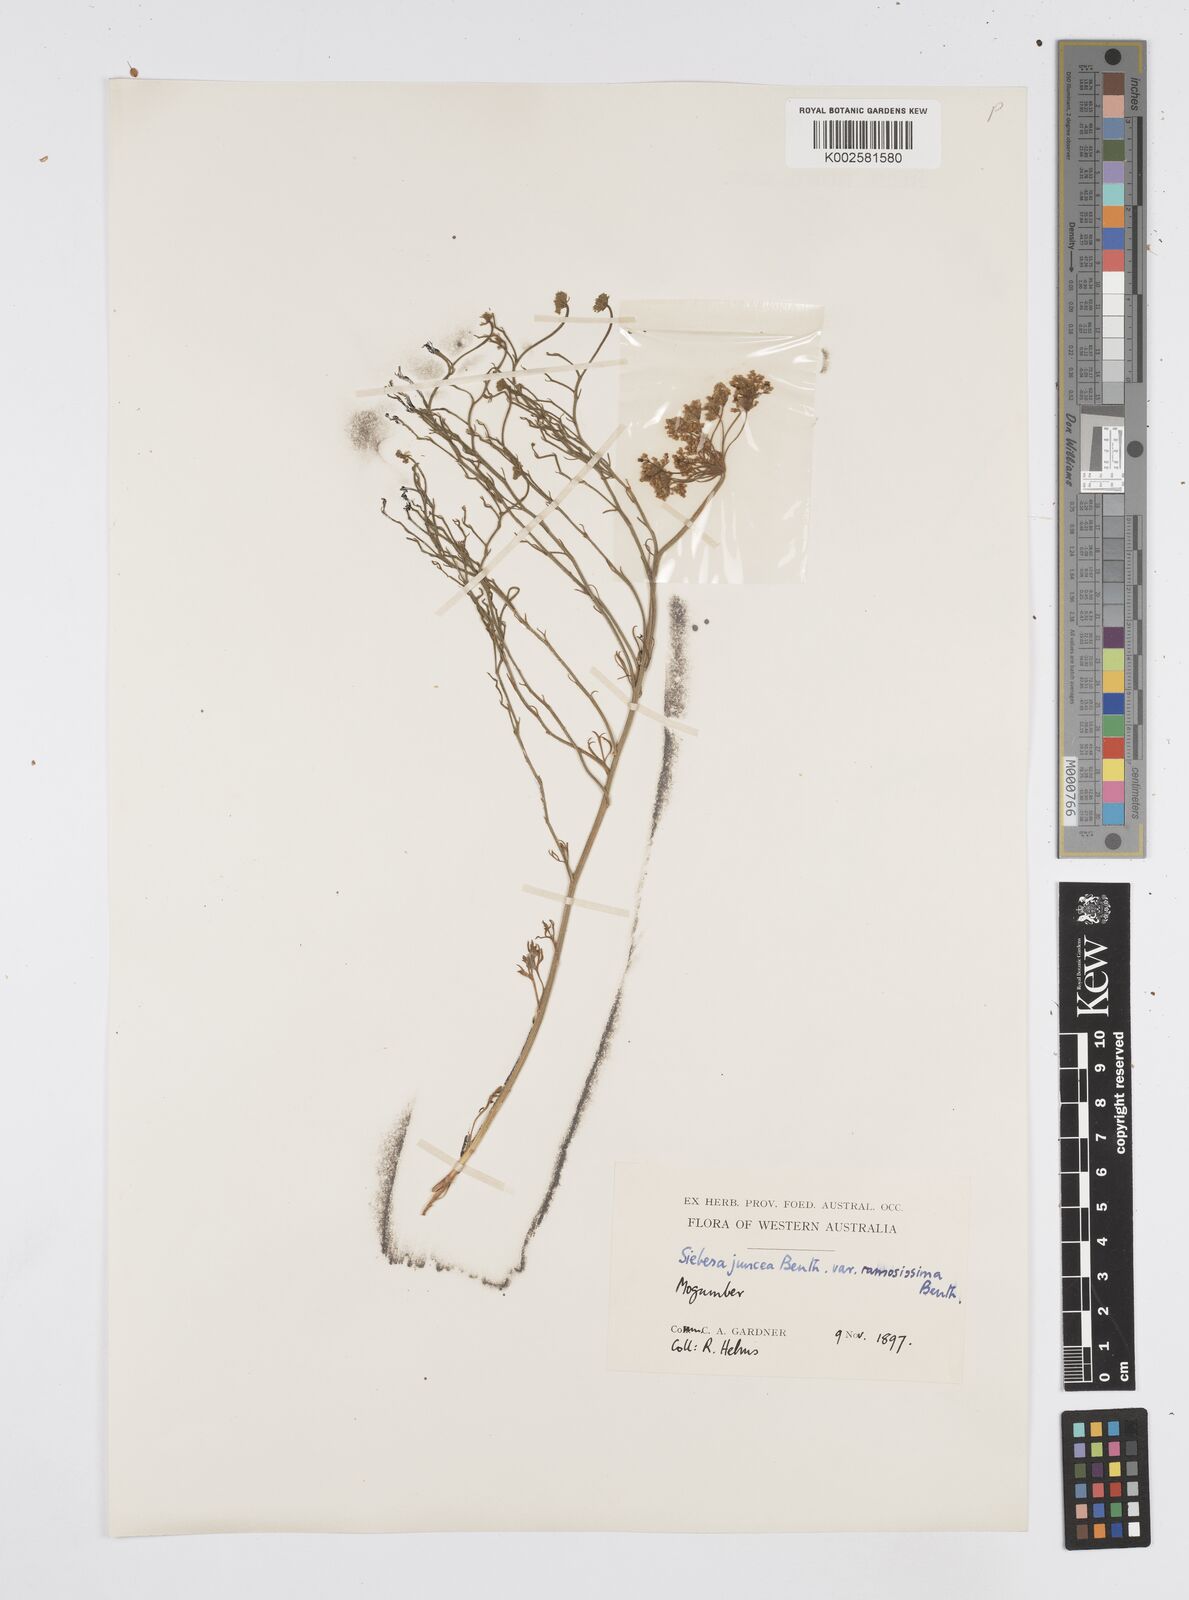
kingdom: Plantae
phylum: Tracheophyta
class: Magnoliopsida
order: Apiales
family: Apiaceae
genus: Platysace
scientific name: Platysace ramosissima
